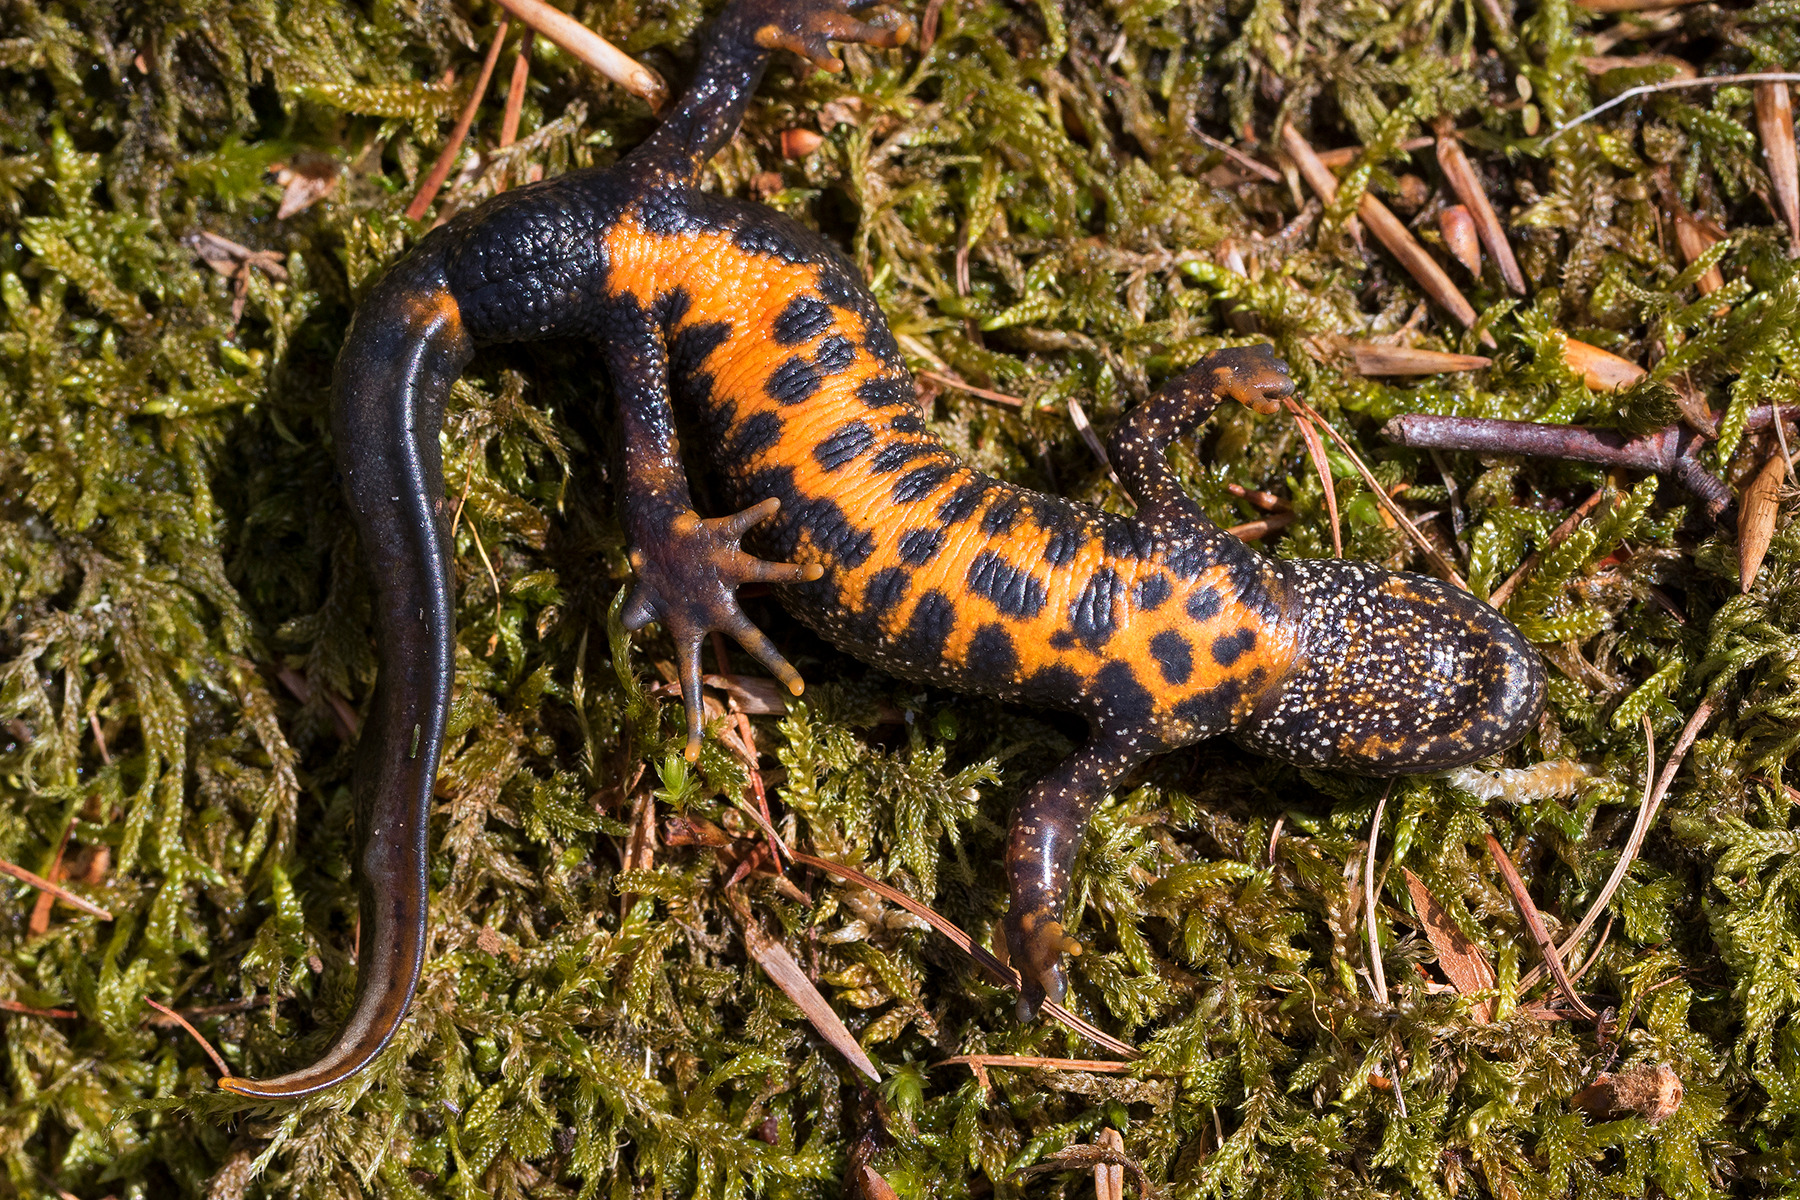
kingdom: Animalia
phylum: Chordata
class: Amphibia
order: Caudata
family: Salamandridae
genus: Triturus
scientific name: Triturus cristatus
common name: Stor vandsalamander
